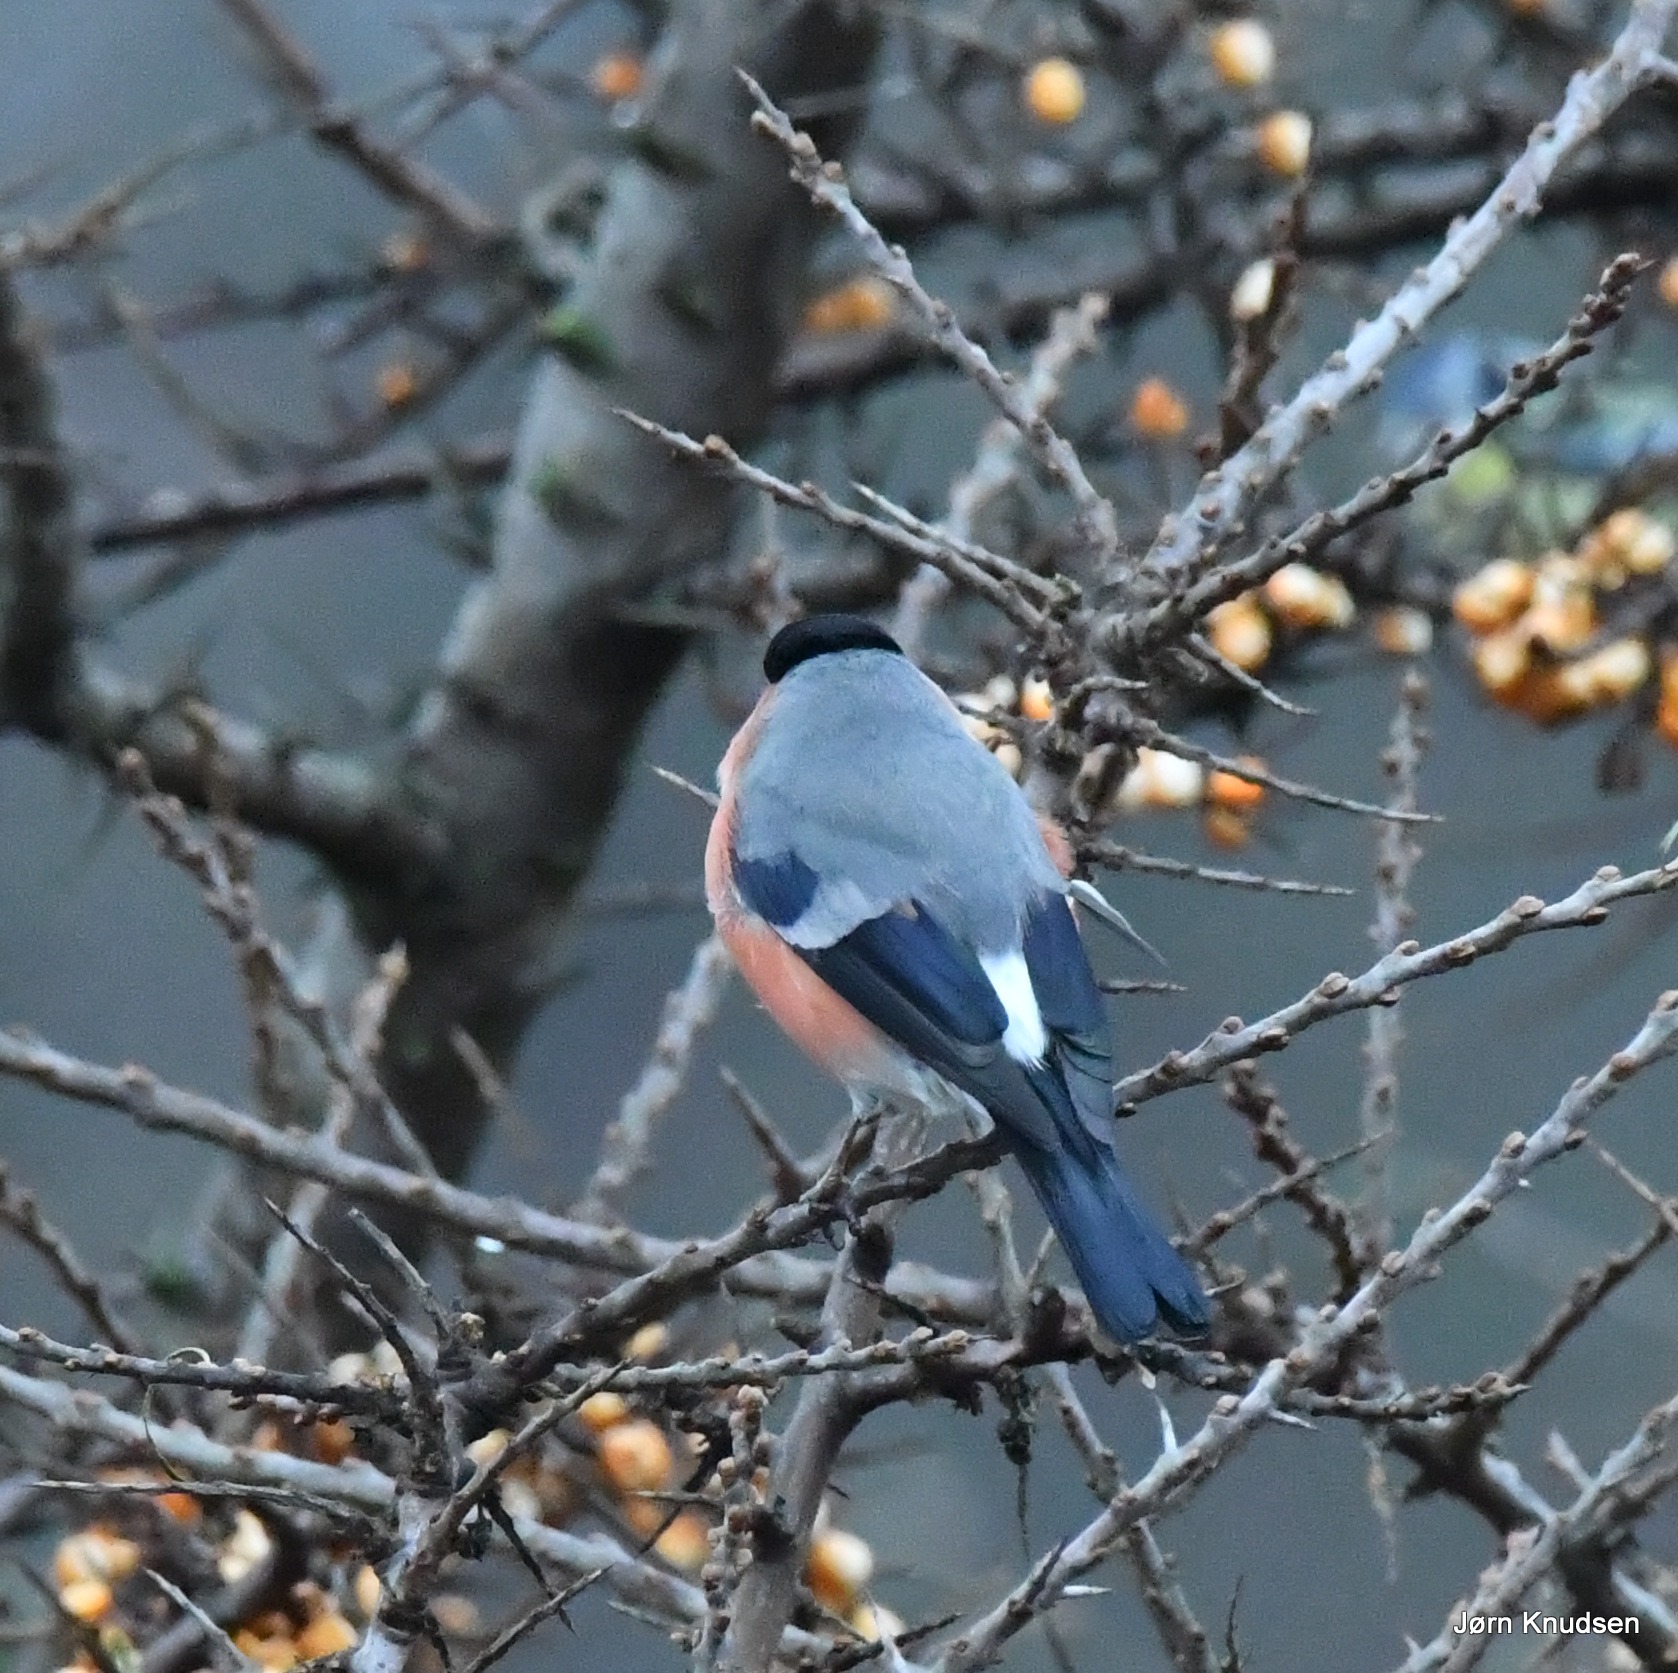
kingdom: Animalia
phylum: Chordata
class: Aves
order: Passeriformes
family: Fringillidae
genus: Pyrrhula
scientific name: Pyrrhula pyrrhula
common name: Dompap
